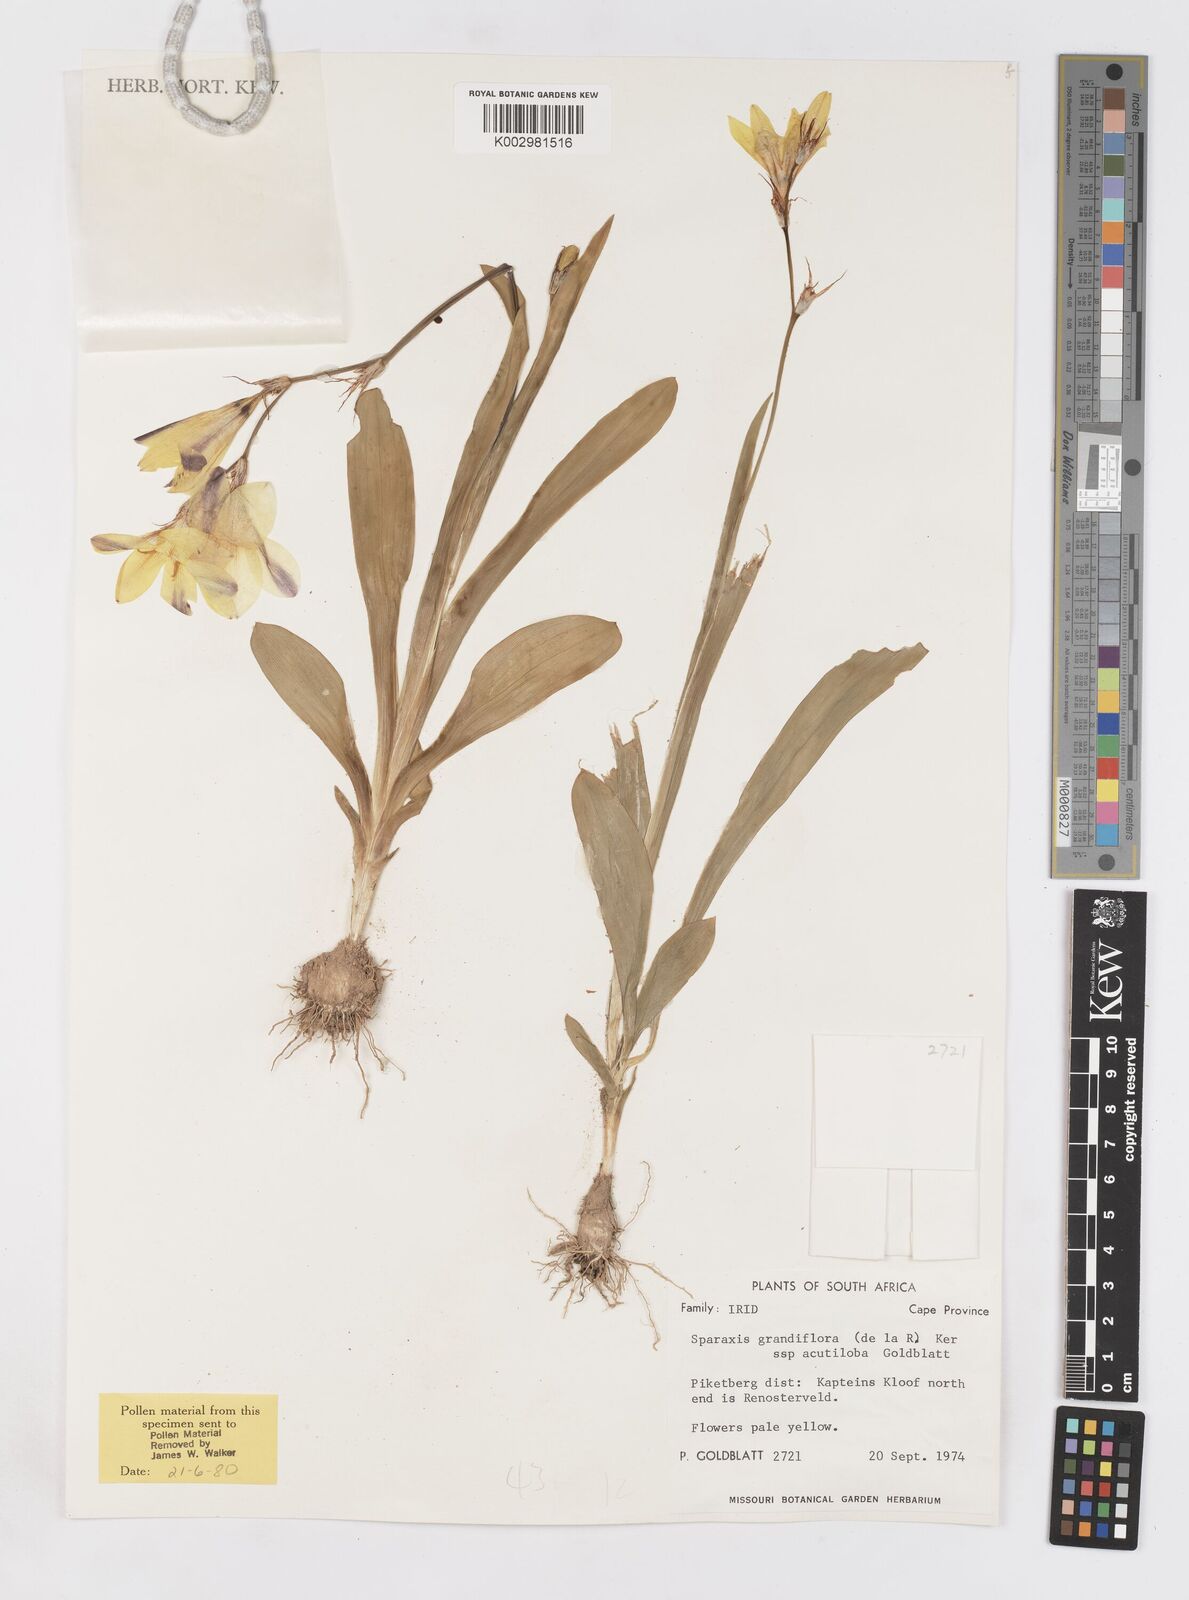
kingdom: Plantae
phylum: Tracheophyta
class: Liliopsida
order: Asparagales
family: Iridaceae
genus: Sparaxis
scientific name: Sparaxis grandiflora
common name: Plain harlequin-flower
